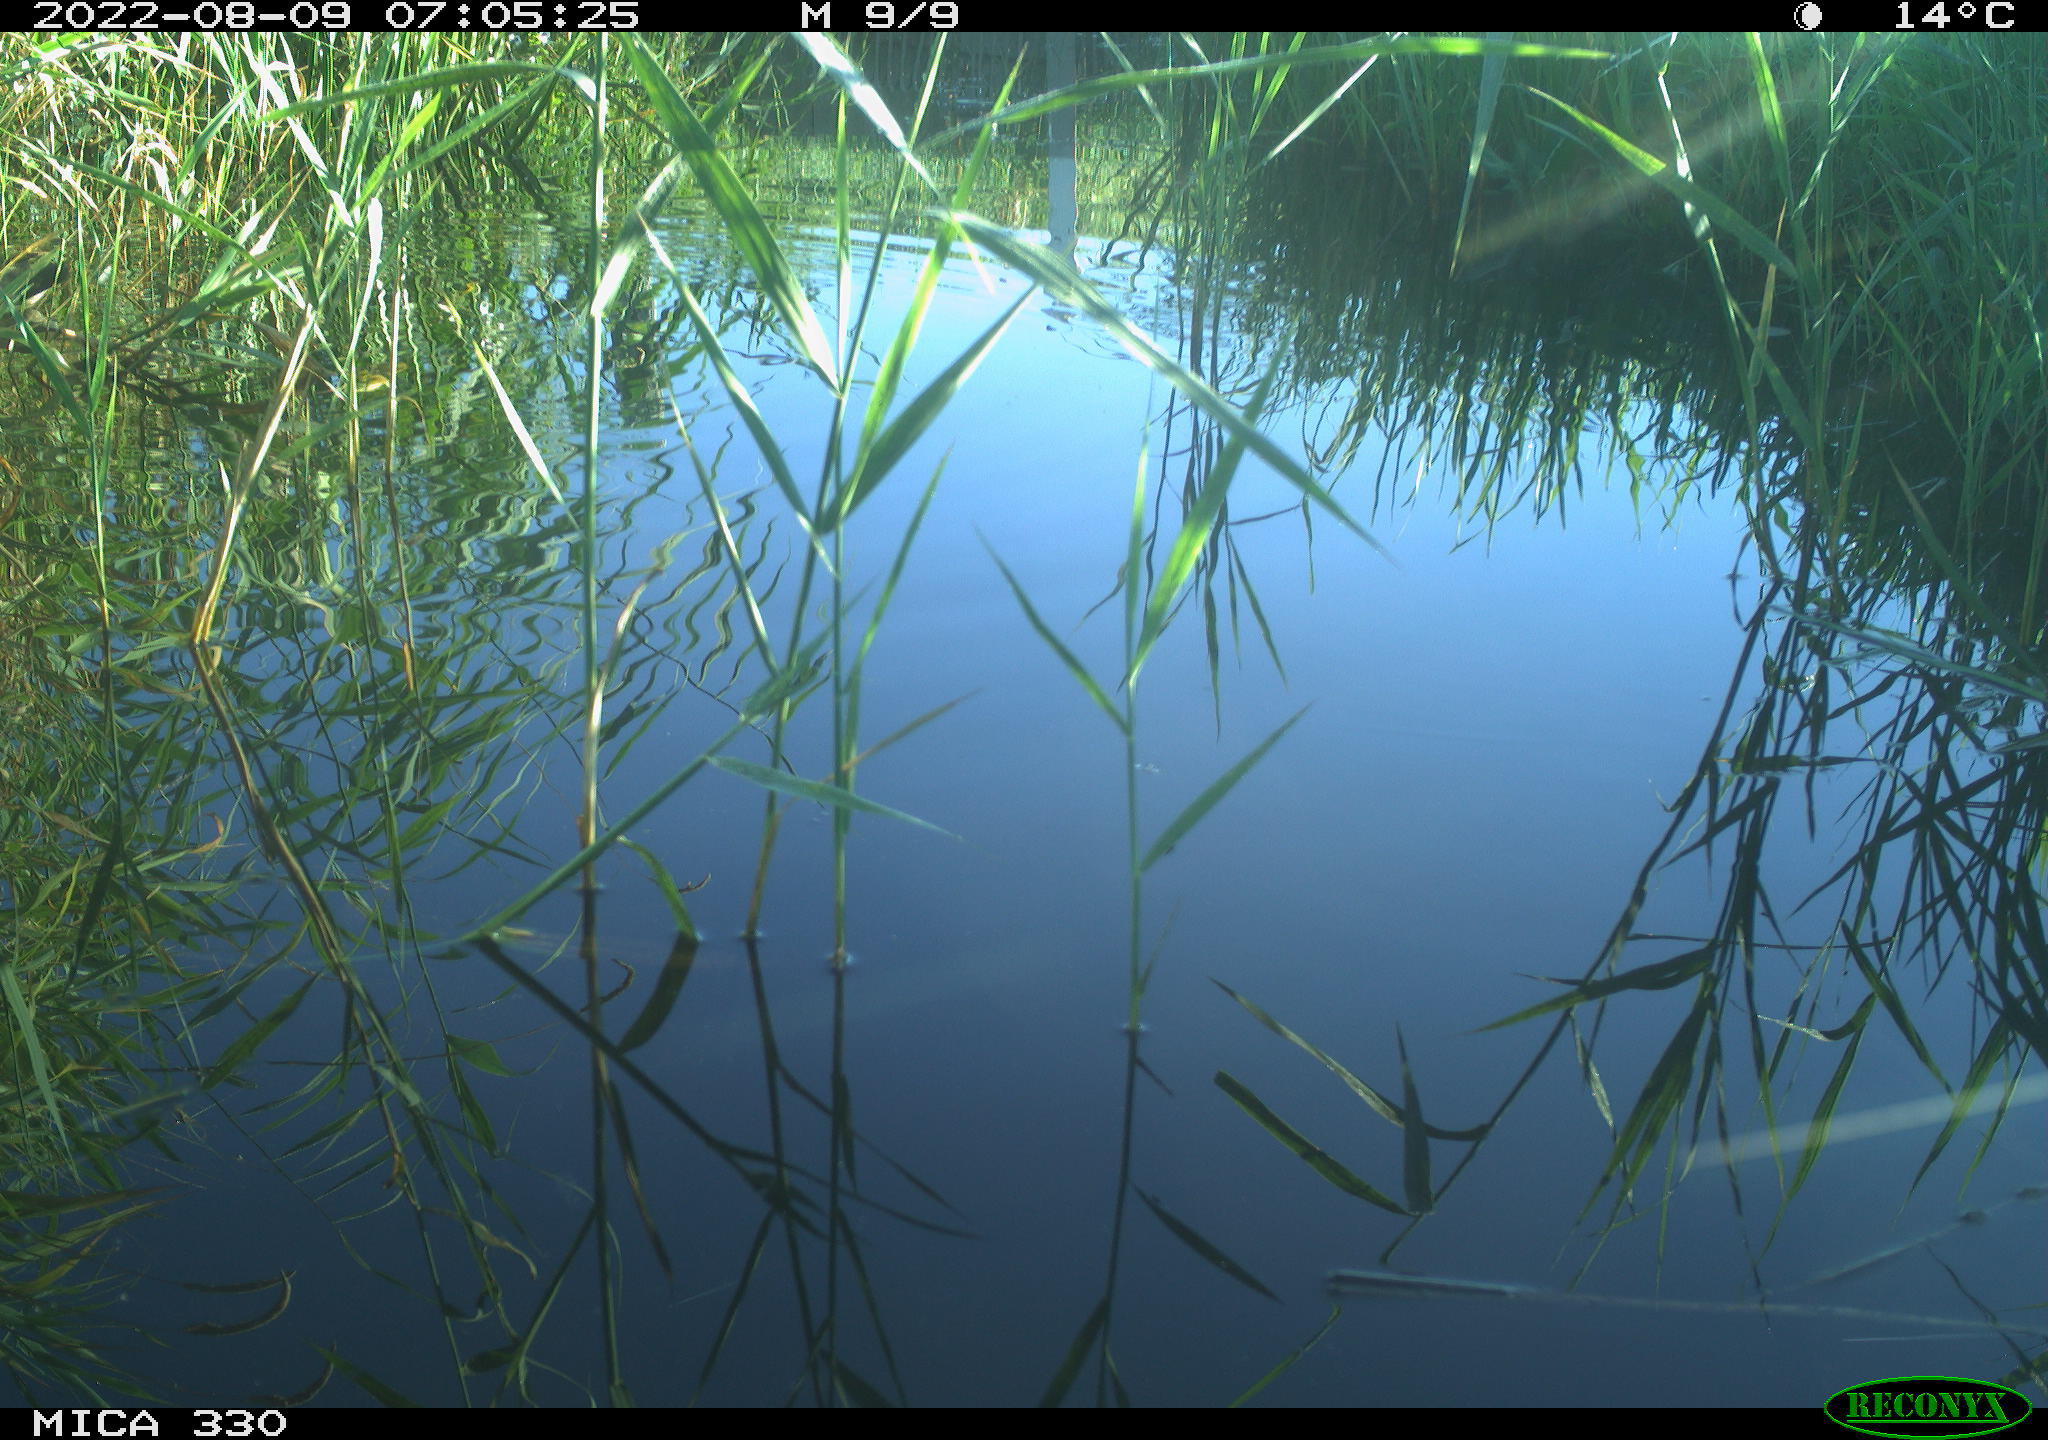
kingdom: Animalia
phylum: Chordata
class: Aves
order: Anseriformes
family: Anatidae
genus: Mareca
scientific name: Mareca strepera
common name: Gadwall
